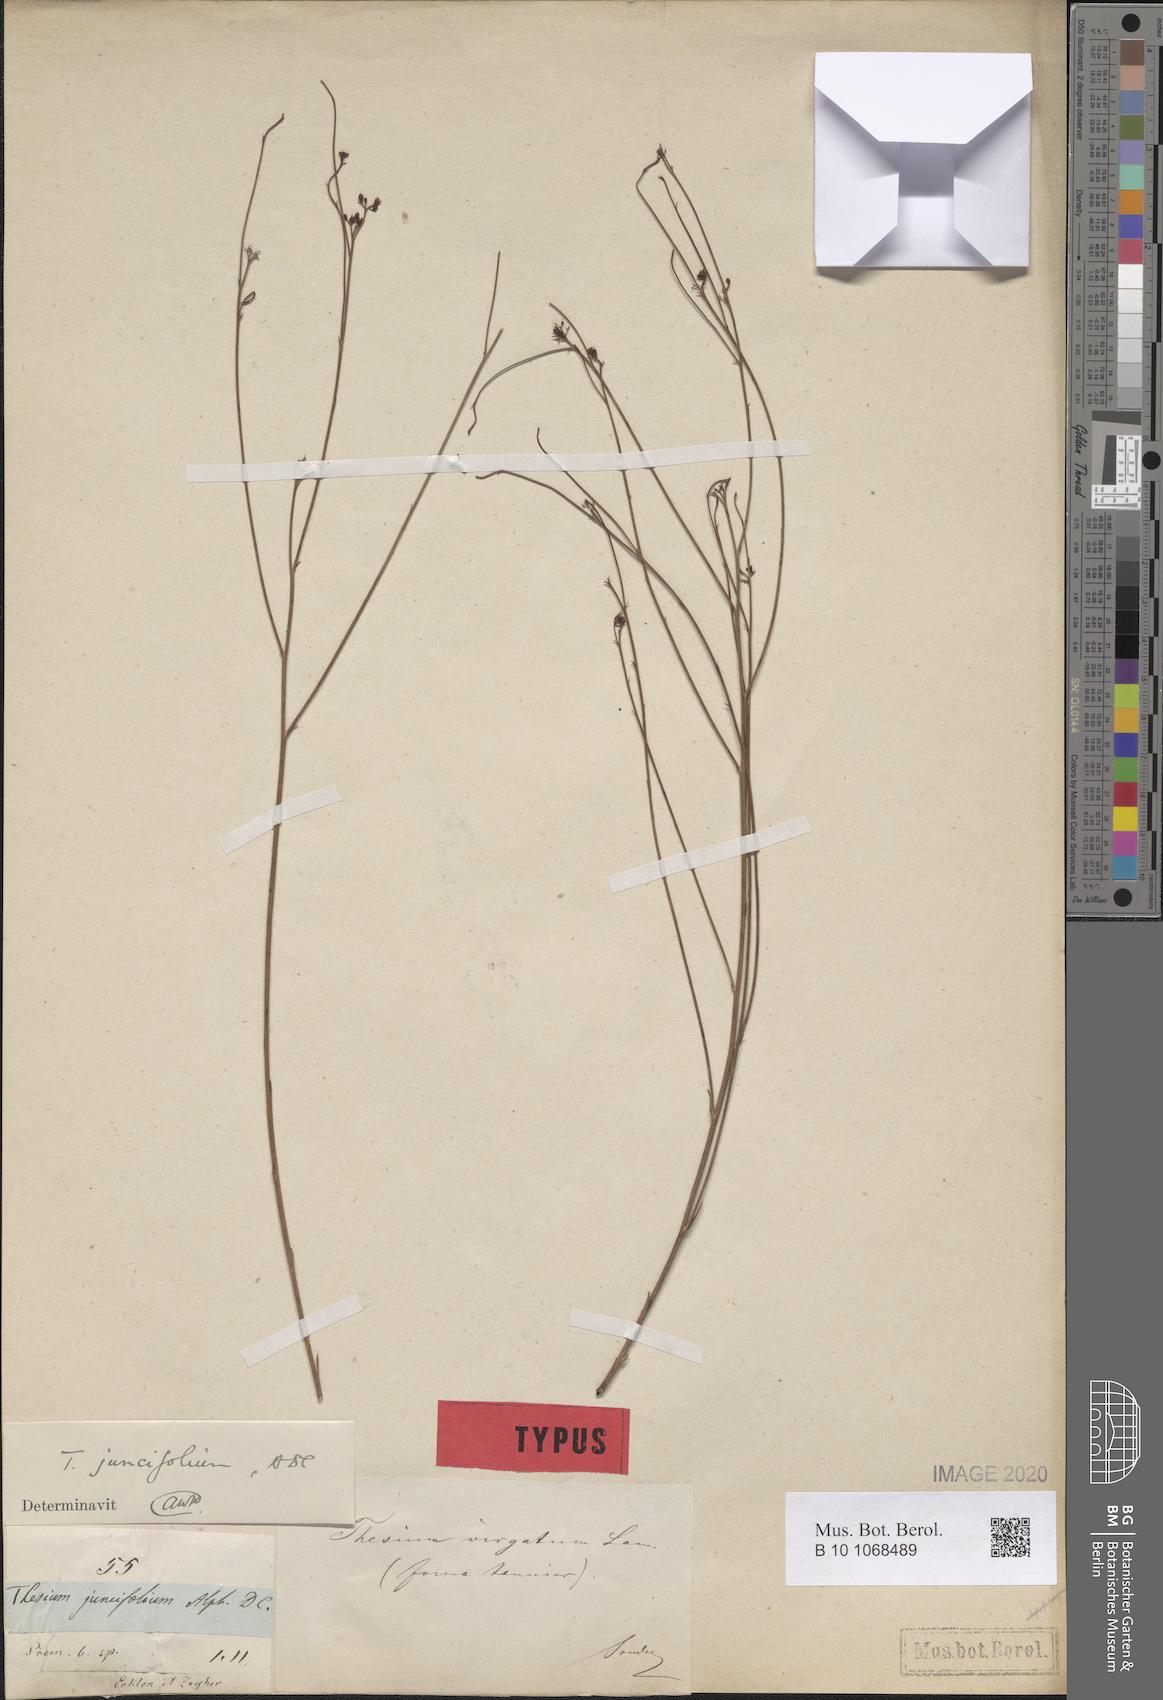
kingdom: Plantae
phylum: Tracheophyta
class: Magnoliopsida
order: Santalales
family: Thesiaceae
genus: Thesium
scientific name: Thesium juncifolium
